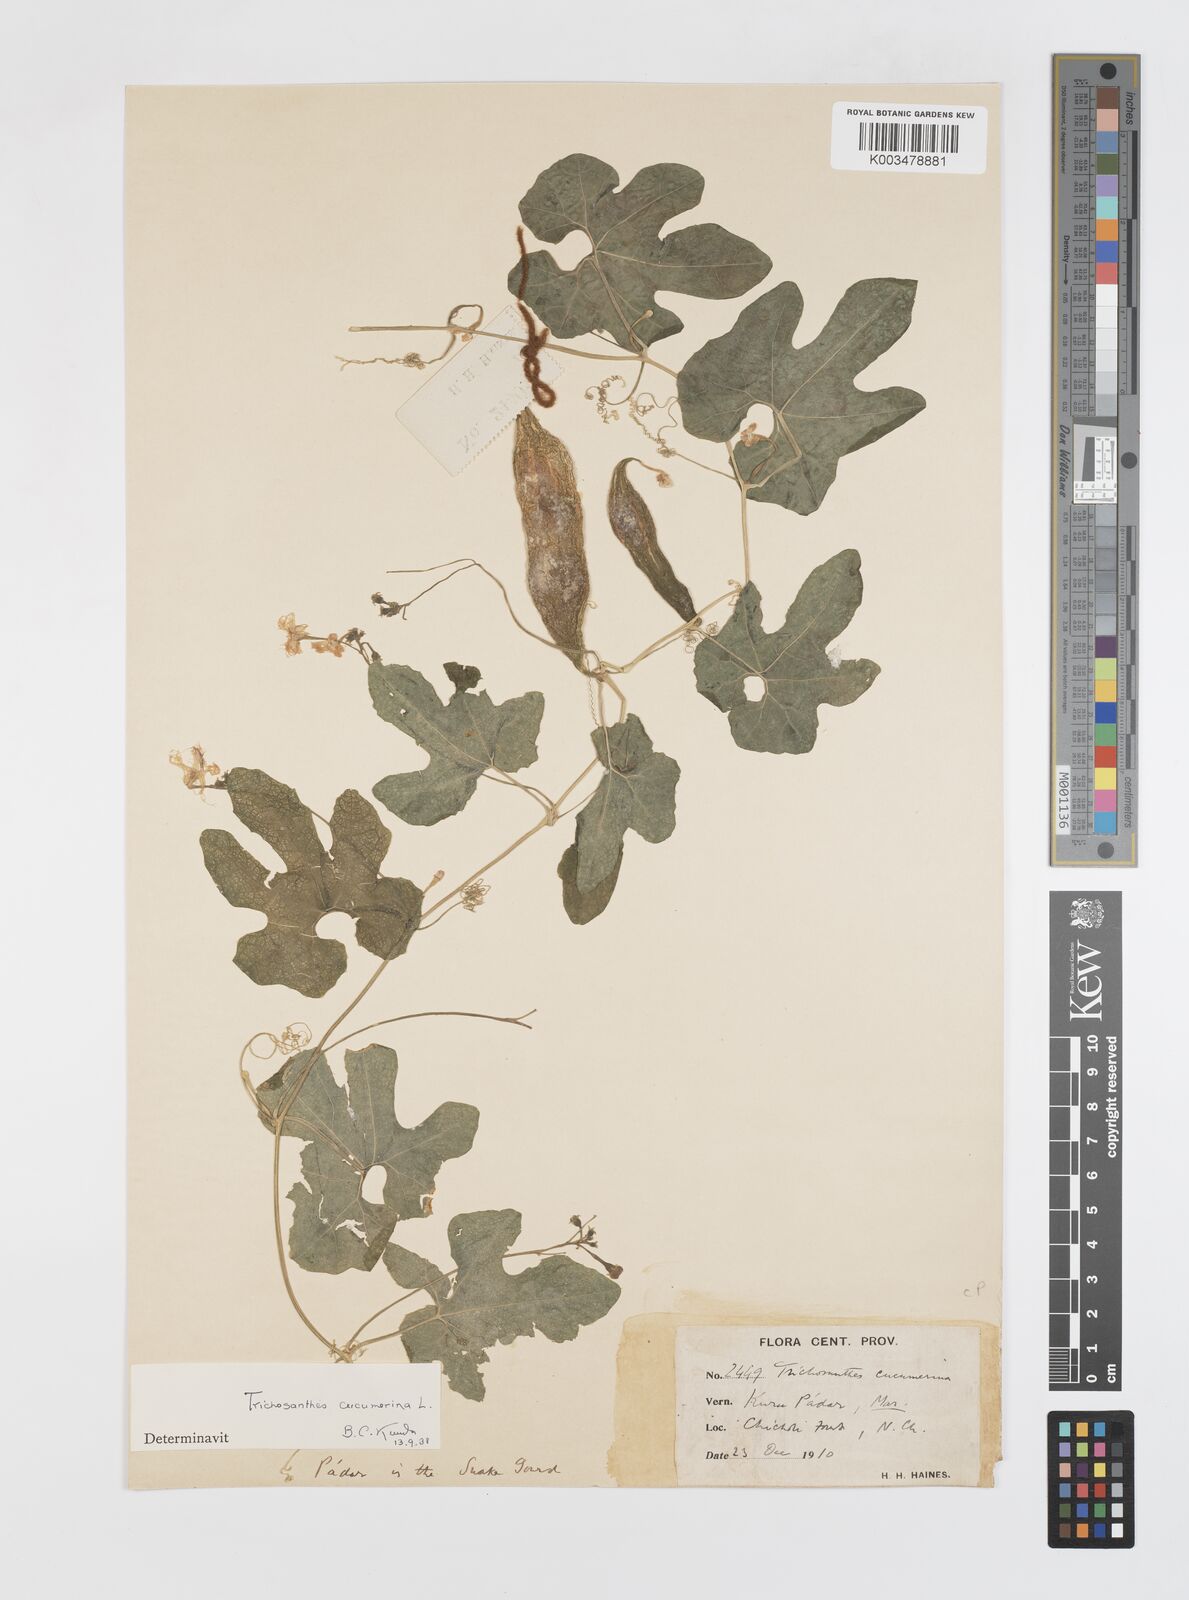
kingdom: Plantae
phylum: Tracheophyta
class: Magnoliopsida
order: Cucurbitales
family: Cucurbitaceae
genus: Trichosanthes
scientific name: Trichosanthes cucumerina
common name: Snakegourd
